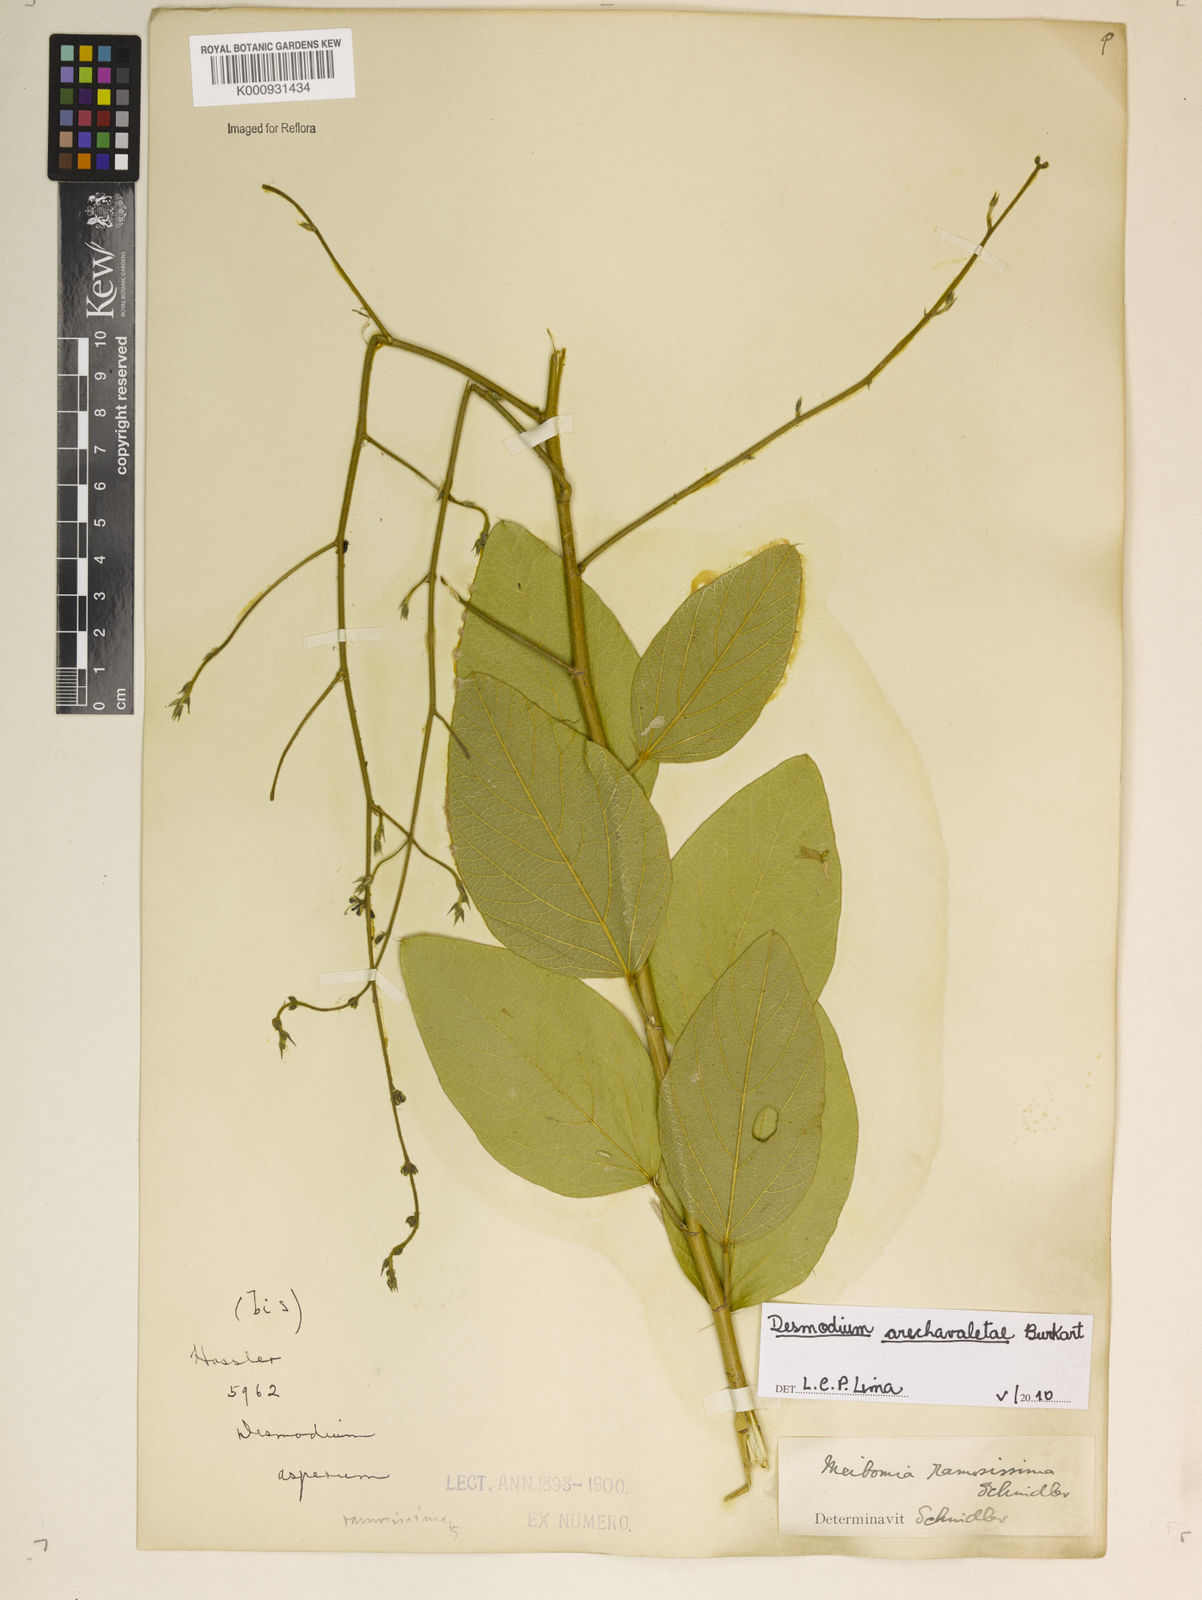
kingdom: Plantae
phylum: Tracheophyta
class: Magnoliopsida
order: Fabales
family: Fabaceae
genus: Desmodium
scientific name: Desmodium arechavaletae
